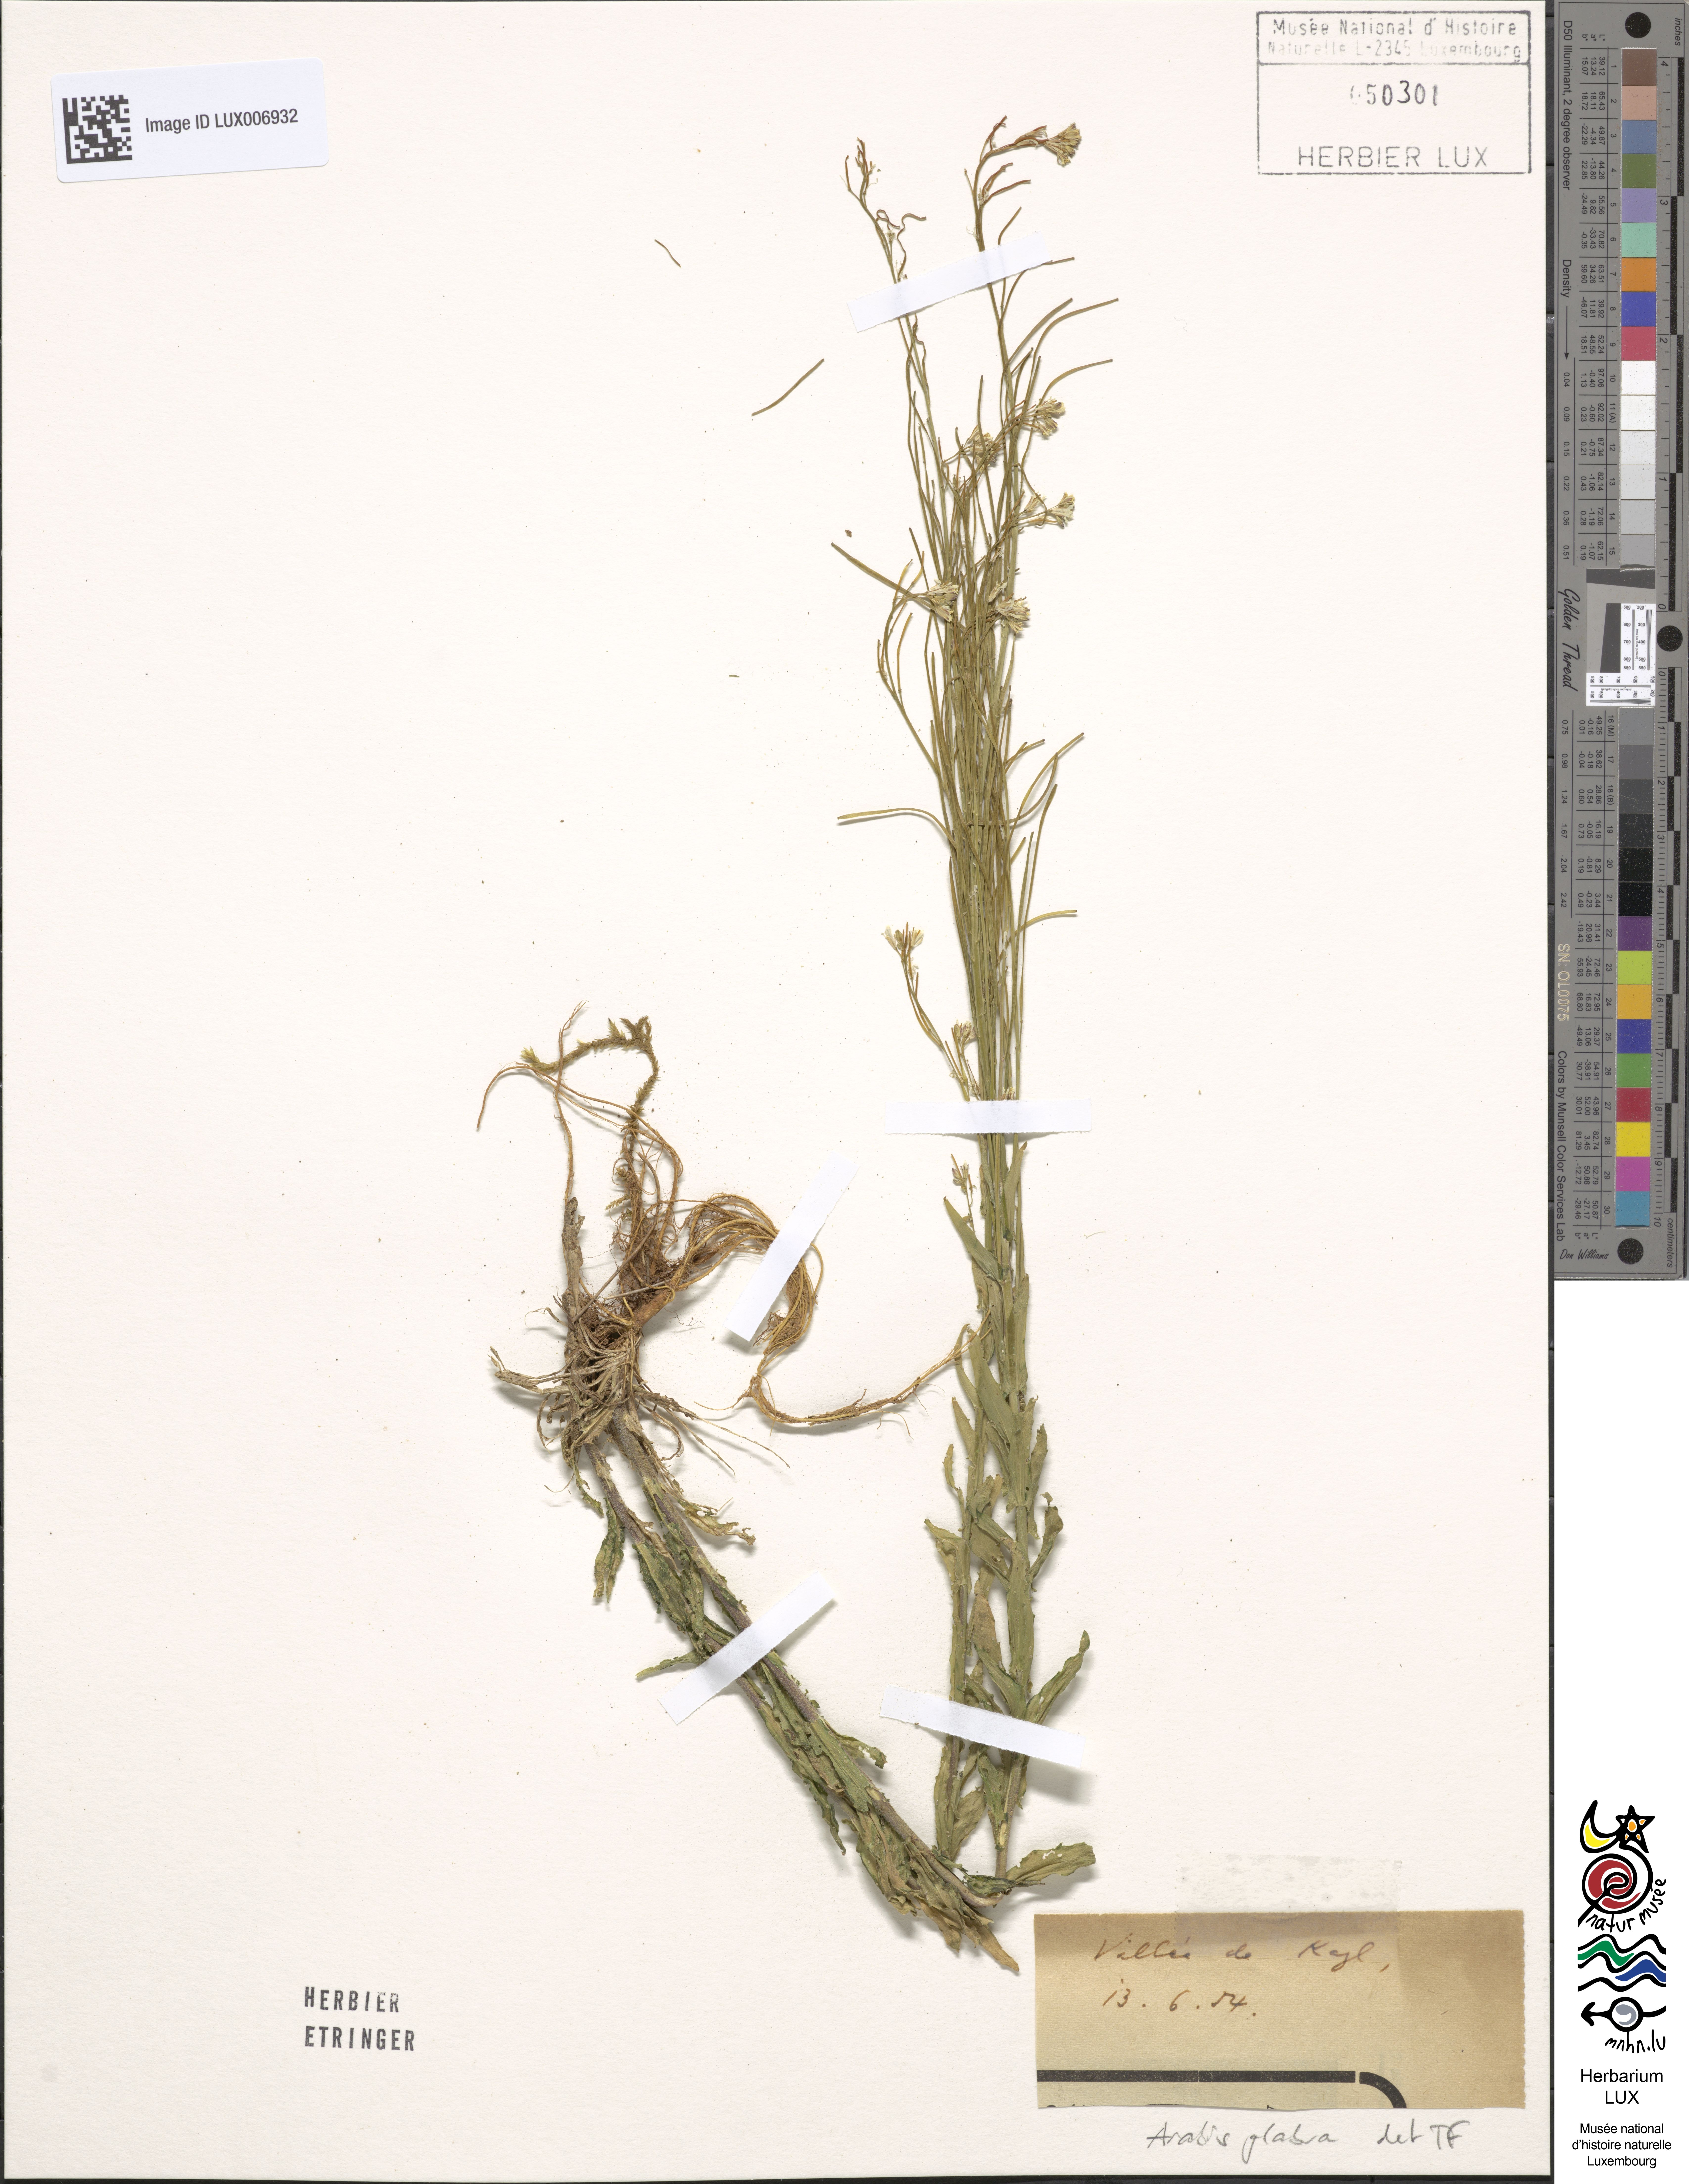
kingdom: Plantae
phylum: Tracheophyta
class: Magnoliopsida
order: Brassicales
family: Brassicaceae
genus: Turritis
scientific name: Turritis glabra
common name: Tower rockcress
